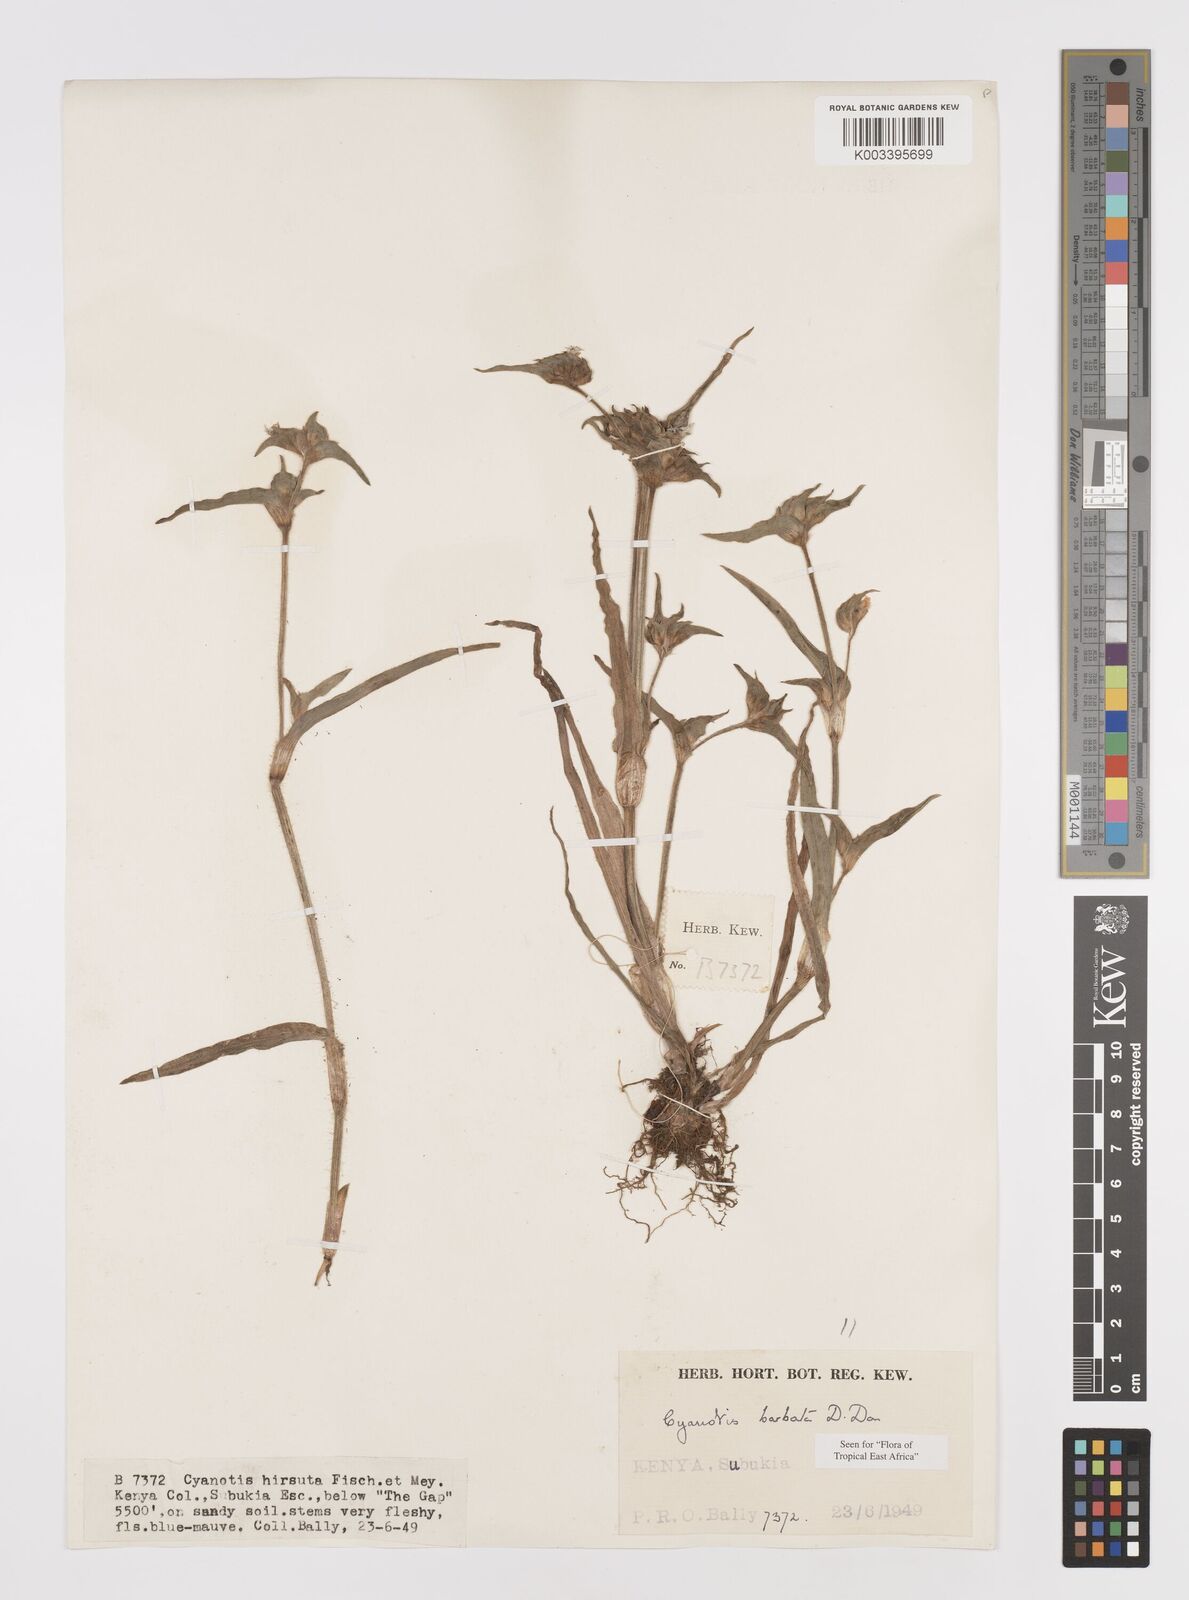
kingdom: Plantae
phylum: Tracheophyta
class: Liliopsida
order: Commelinales
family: Commelinaceae
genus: Cyanotis
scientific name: Cyanotis vaga
